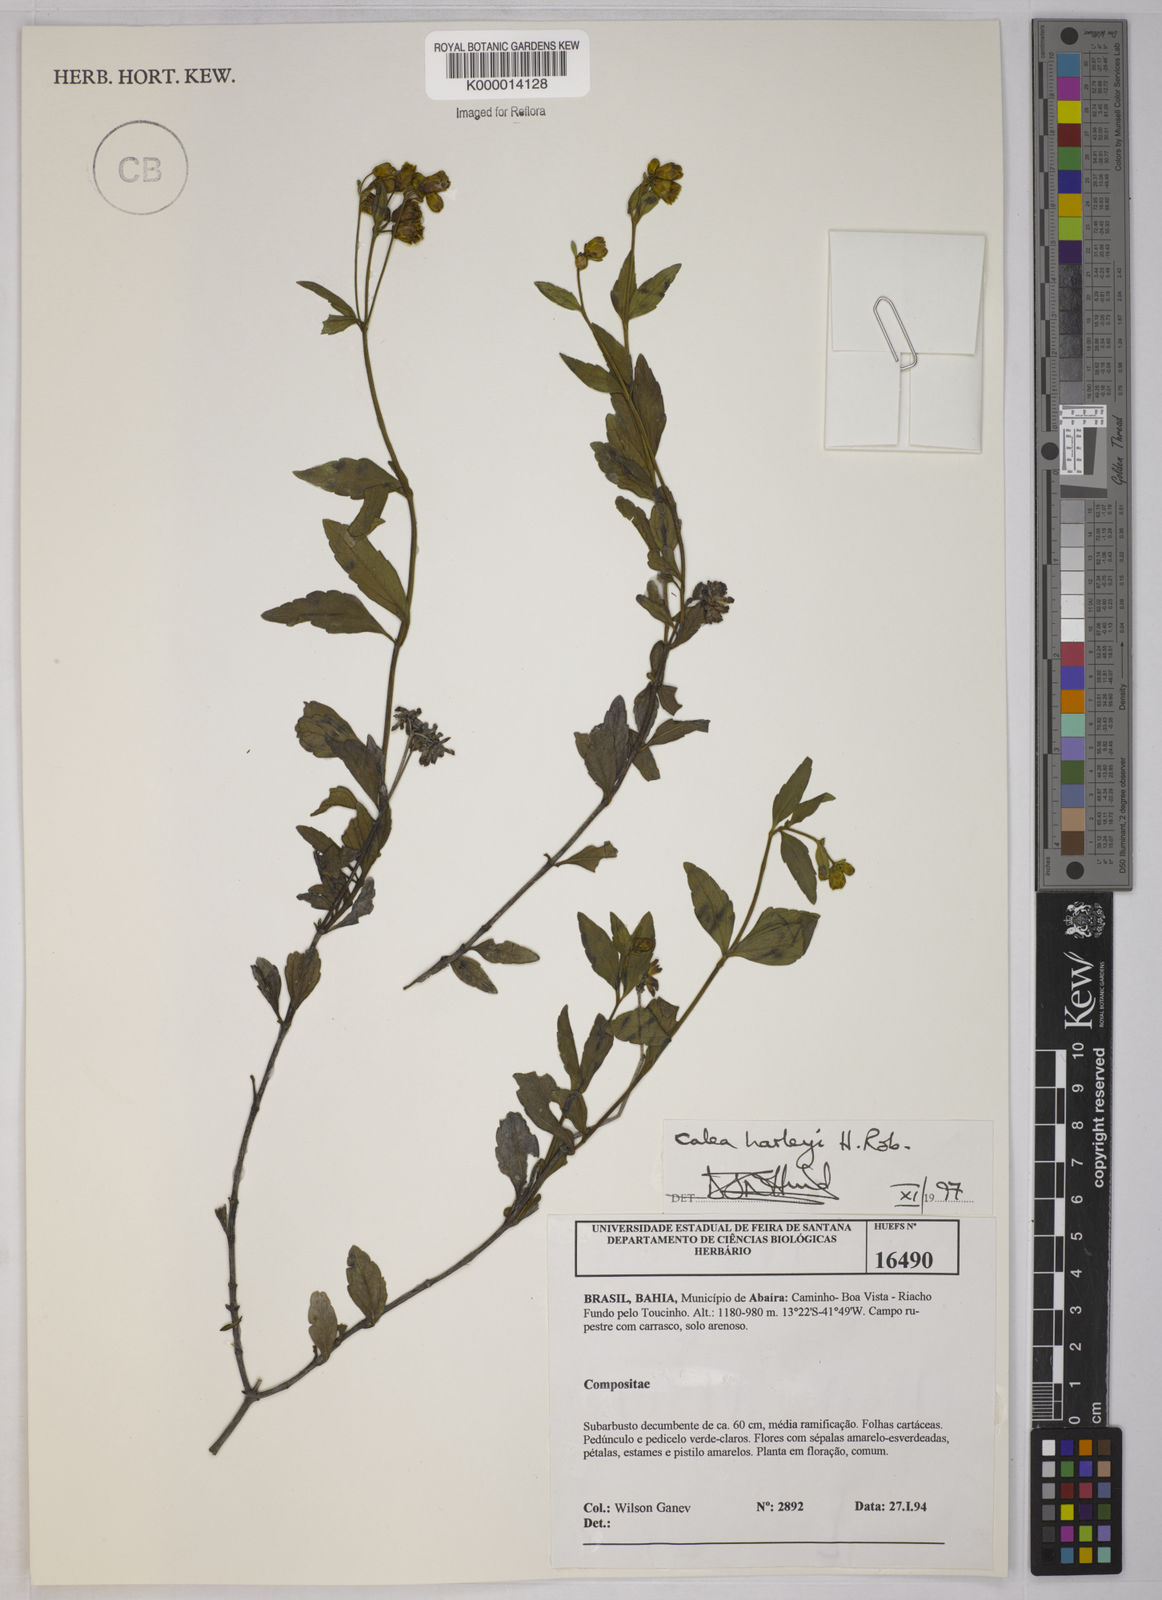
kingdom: Plantae
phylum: Tracheophyta
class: Magnoliopsida
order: Asterales
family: Asteraceae
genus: Calea
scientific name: Calea harleyi
